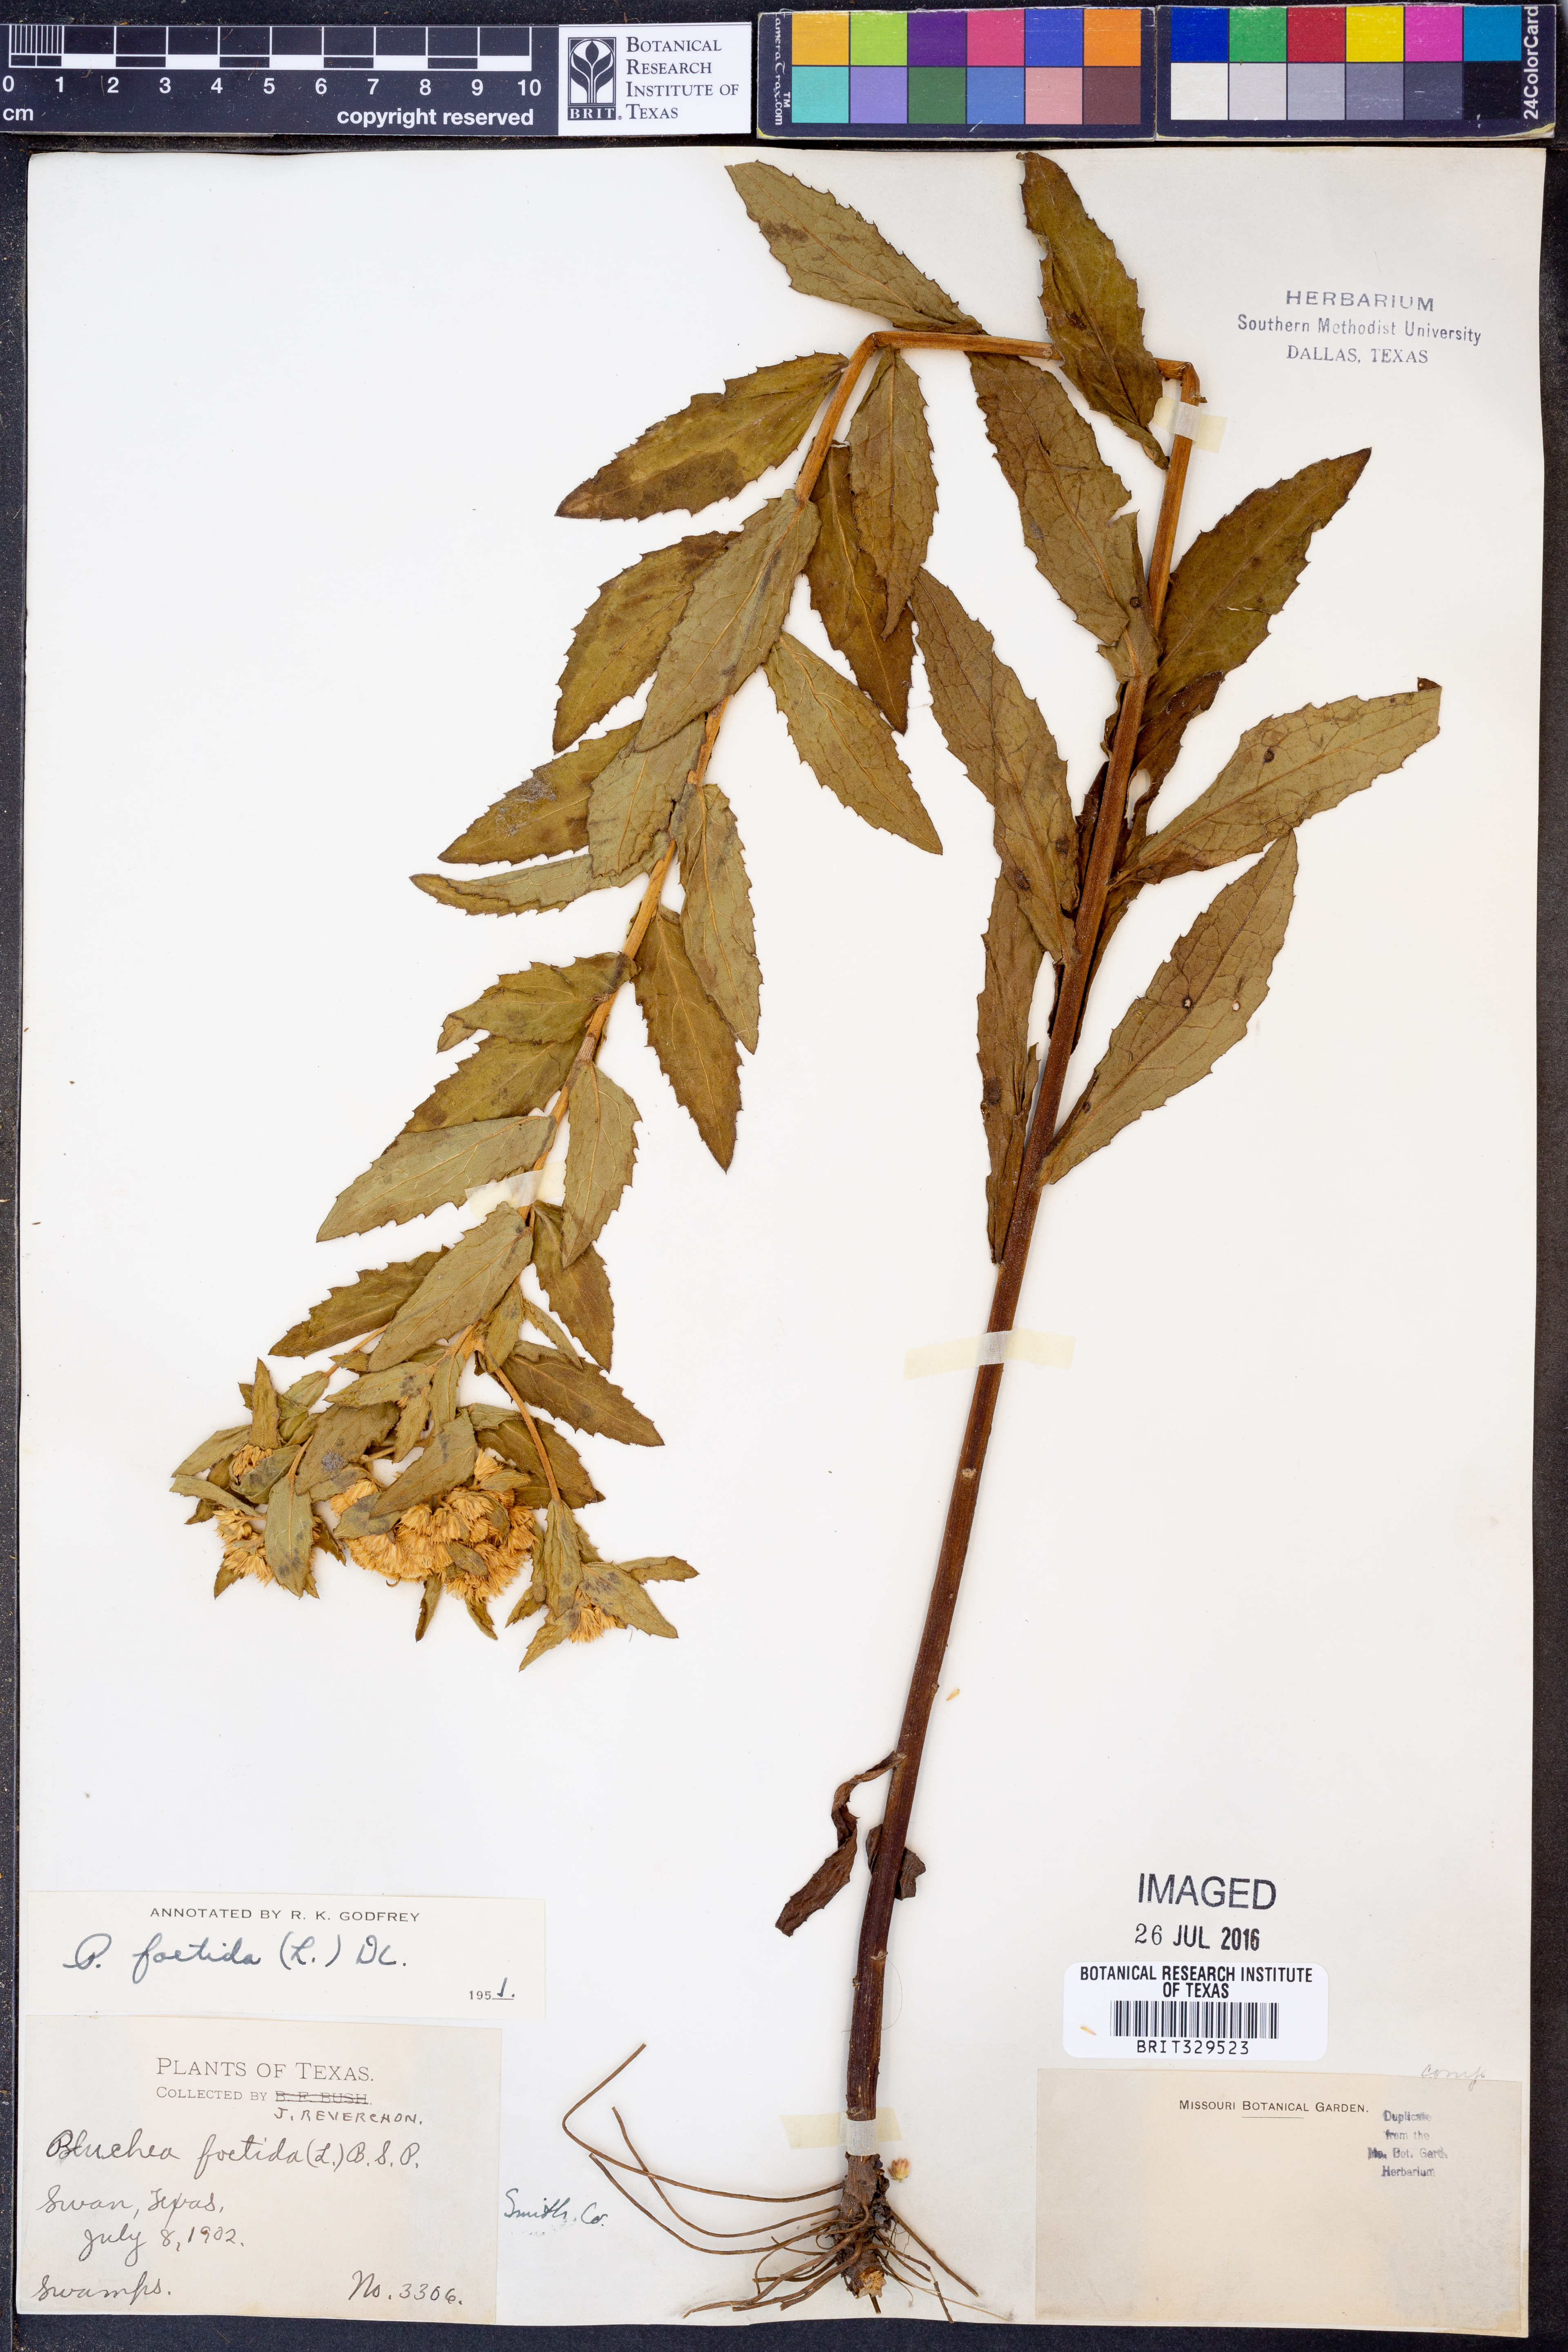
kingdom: Plantae
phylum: Tracheophyta
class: Magnoliopsida
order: Asterales
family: Asteraceae
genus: Pluchea
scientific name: Pluchea foetida
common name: Stinking camphorweed
